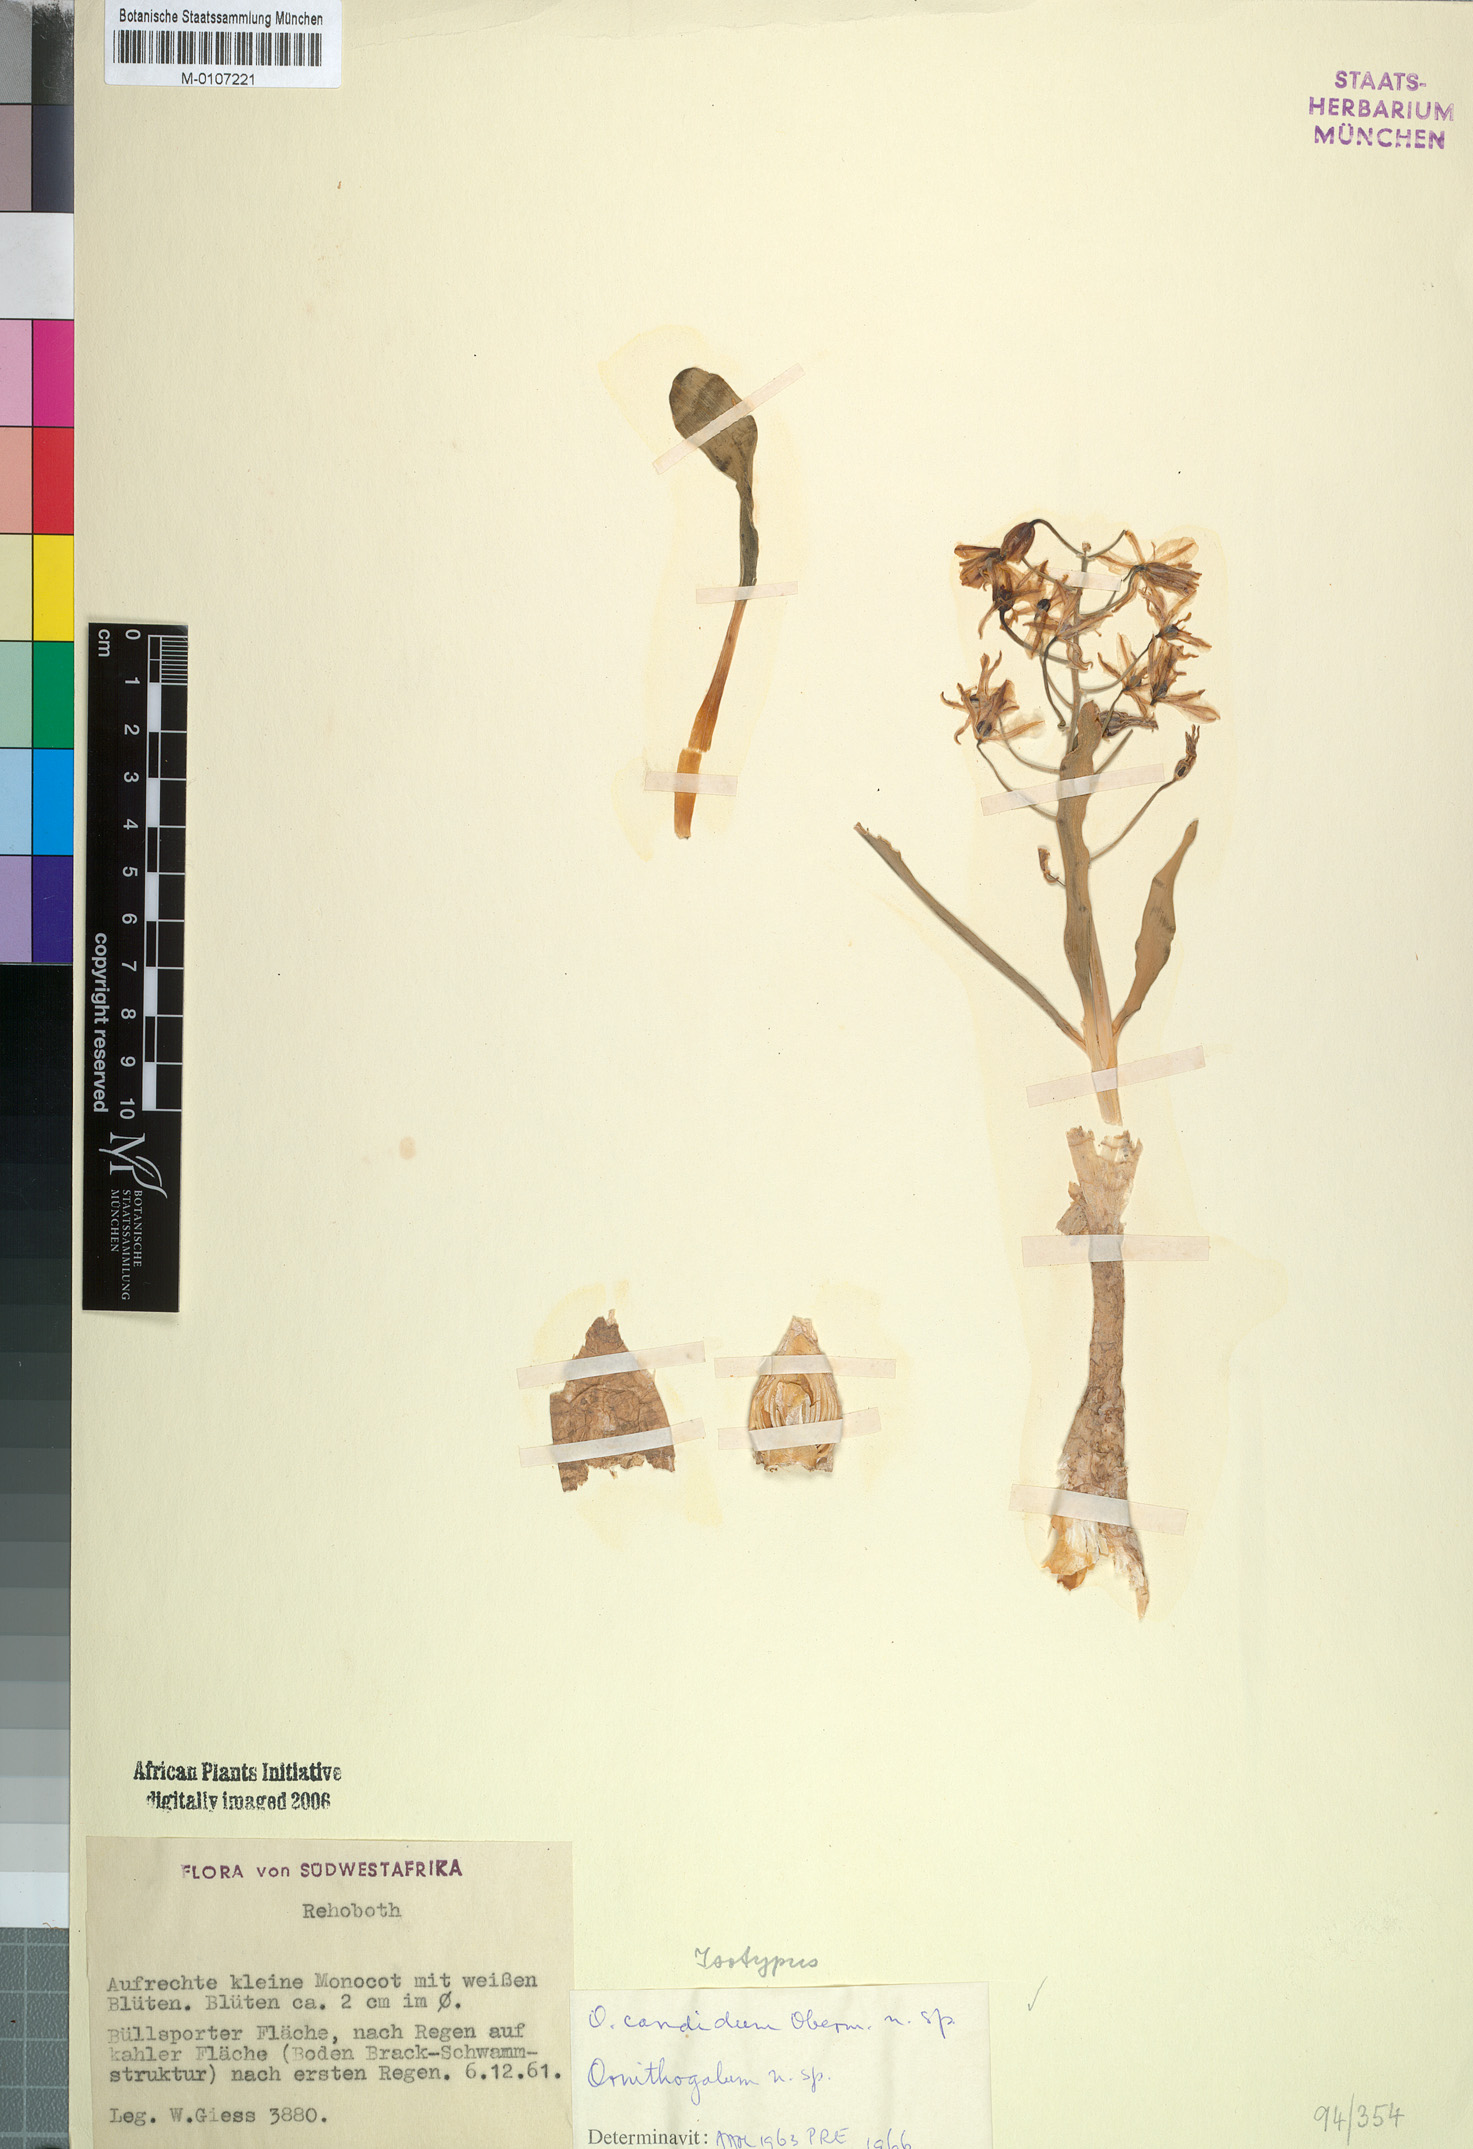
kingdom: Plantae
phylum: Tracheophyta
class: Liliopsida
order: Asparagales
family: Asparagaceae
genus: Albuca
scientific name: Albuca candida
